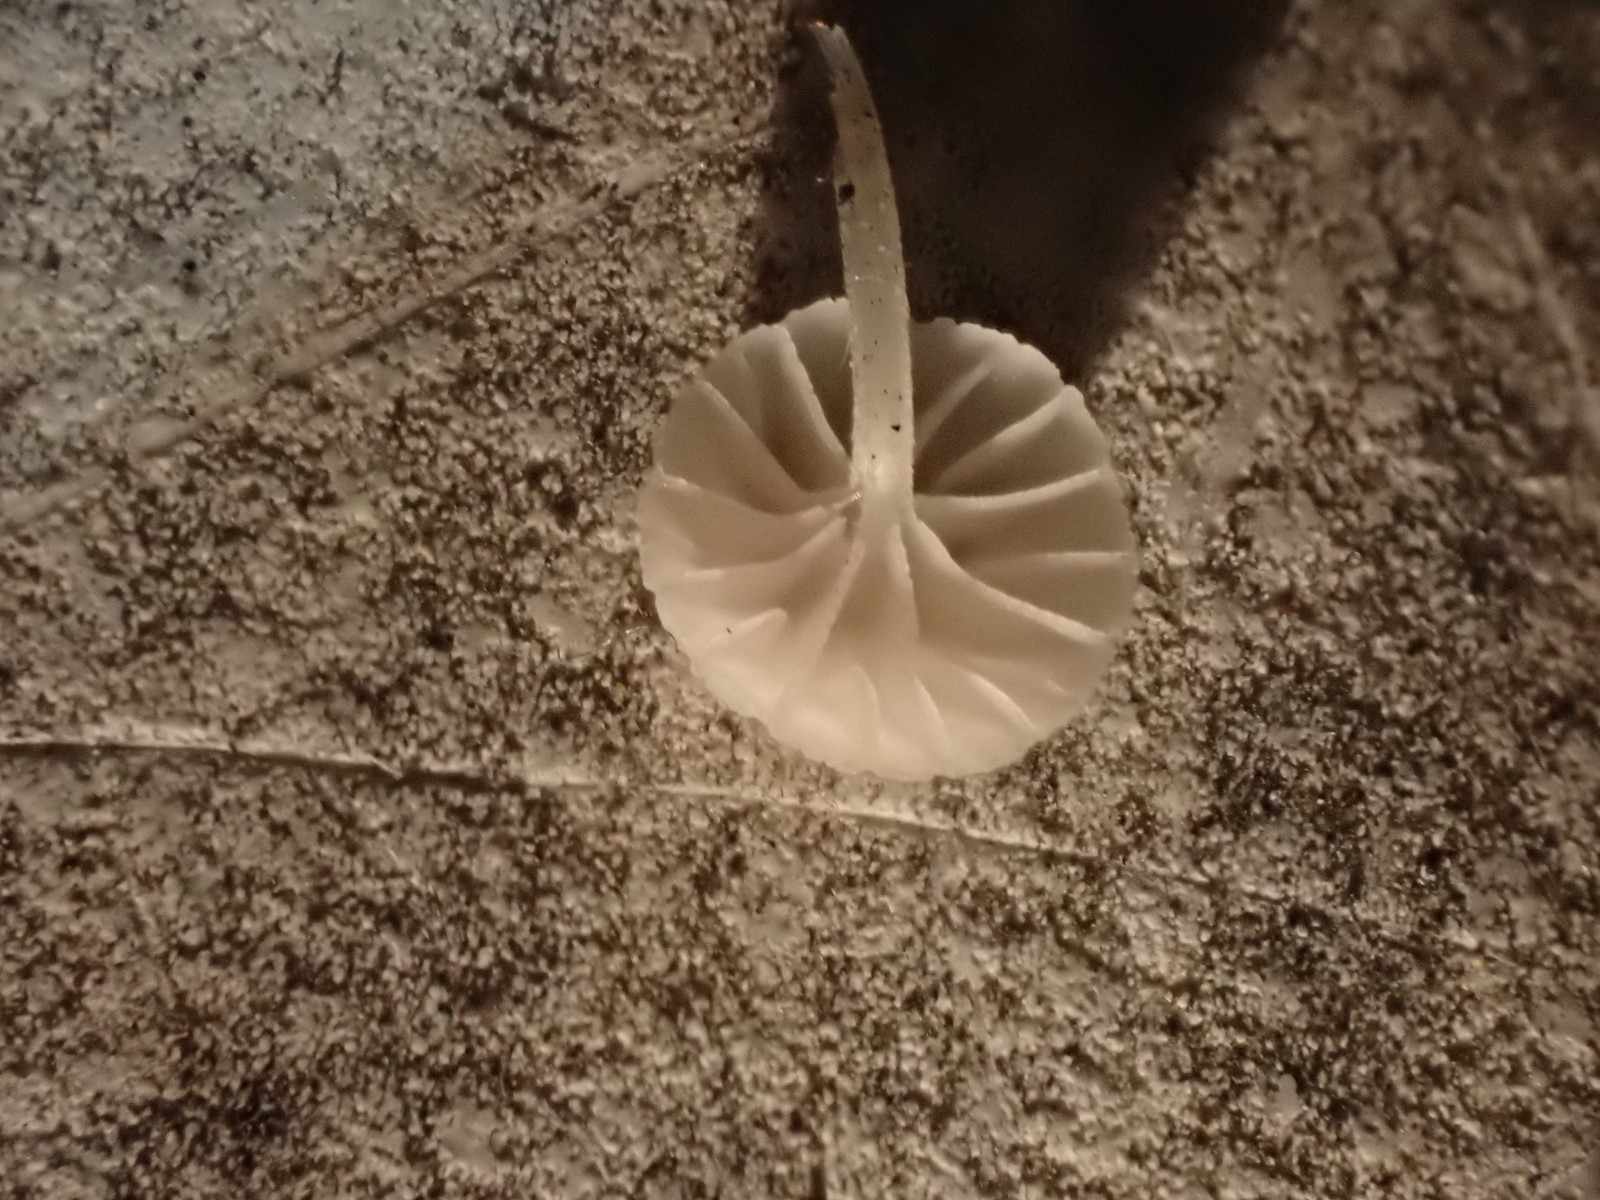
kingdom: Fungi
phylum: Basidiomycota
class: Agaricomycetes
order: Agaricales
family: Mycenaceae
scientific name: Mycenaceae
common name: huesvampfamilien
